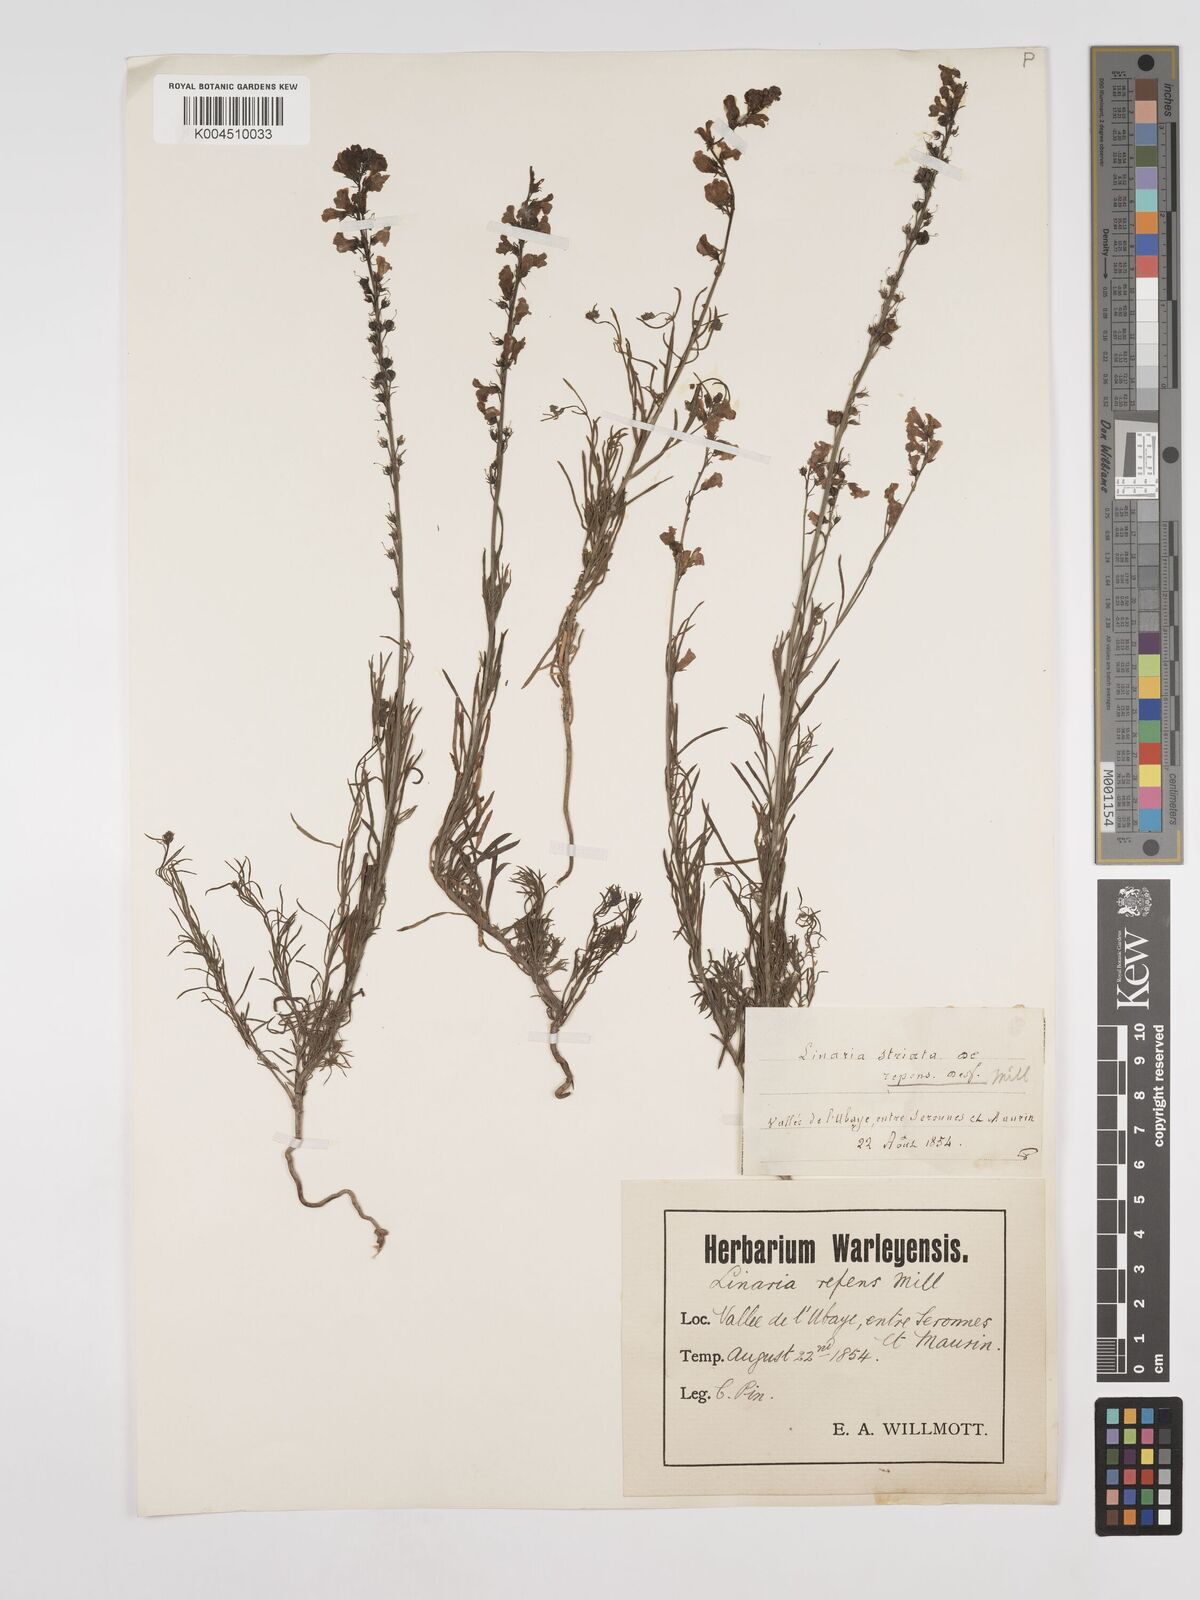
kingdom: Plantae
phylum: Tracheophyta
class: Magnoliopsida
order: Lamiales
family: Plantaginaceae
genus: Linaria
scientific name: Linaria repens
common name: Pale toadflax
